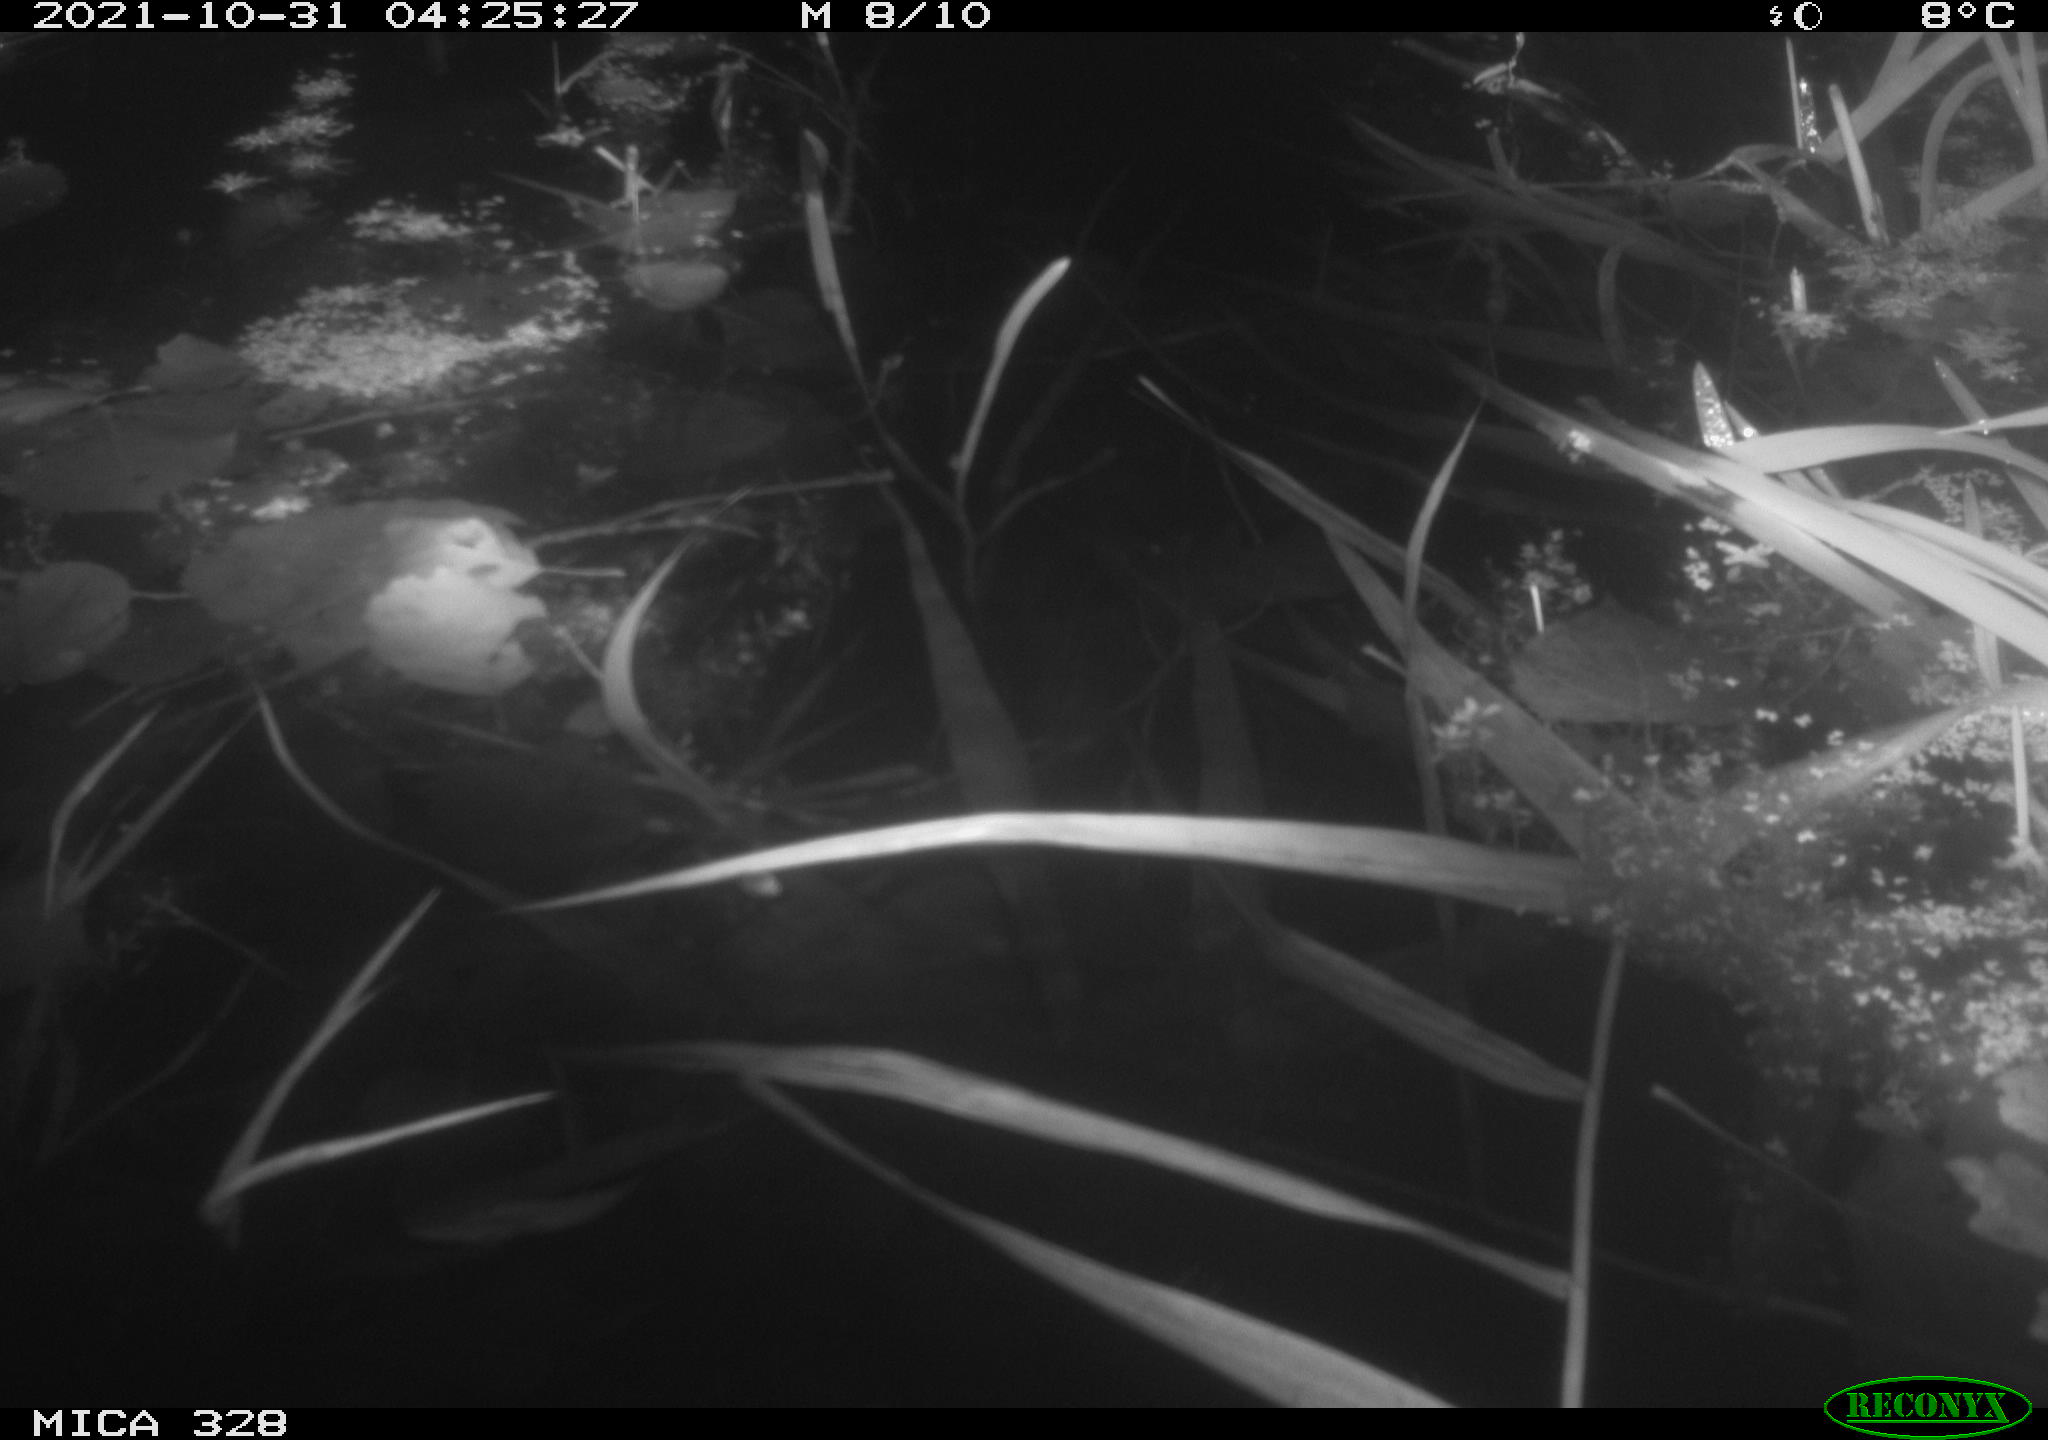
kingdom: Animalia
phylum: Chordata
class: Mammalia
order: Rodentia
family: Cricetidae
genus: Ondatra
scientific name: Ondatra zibethicus
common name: Muskrat
